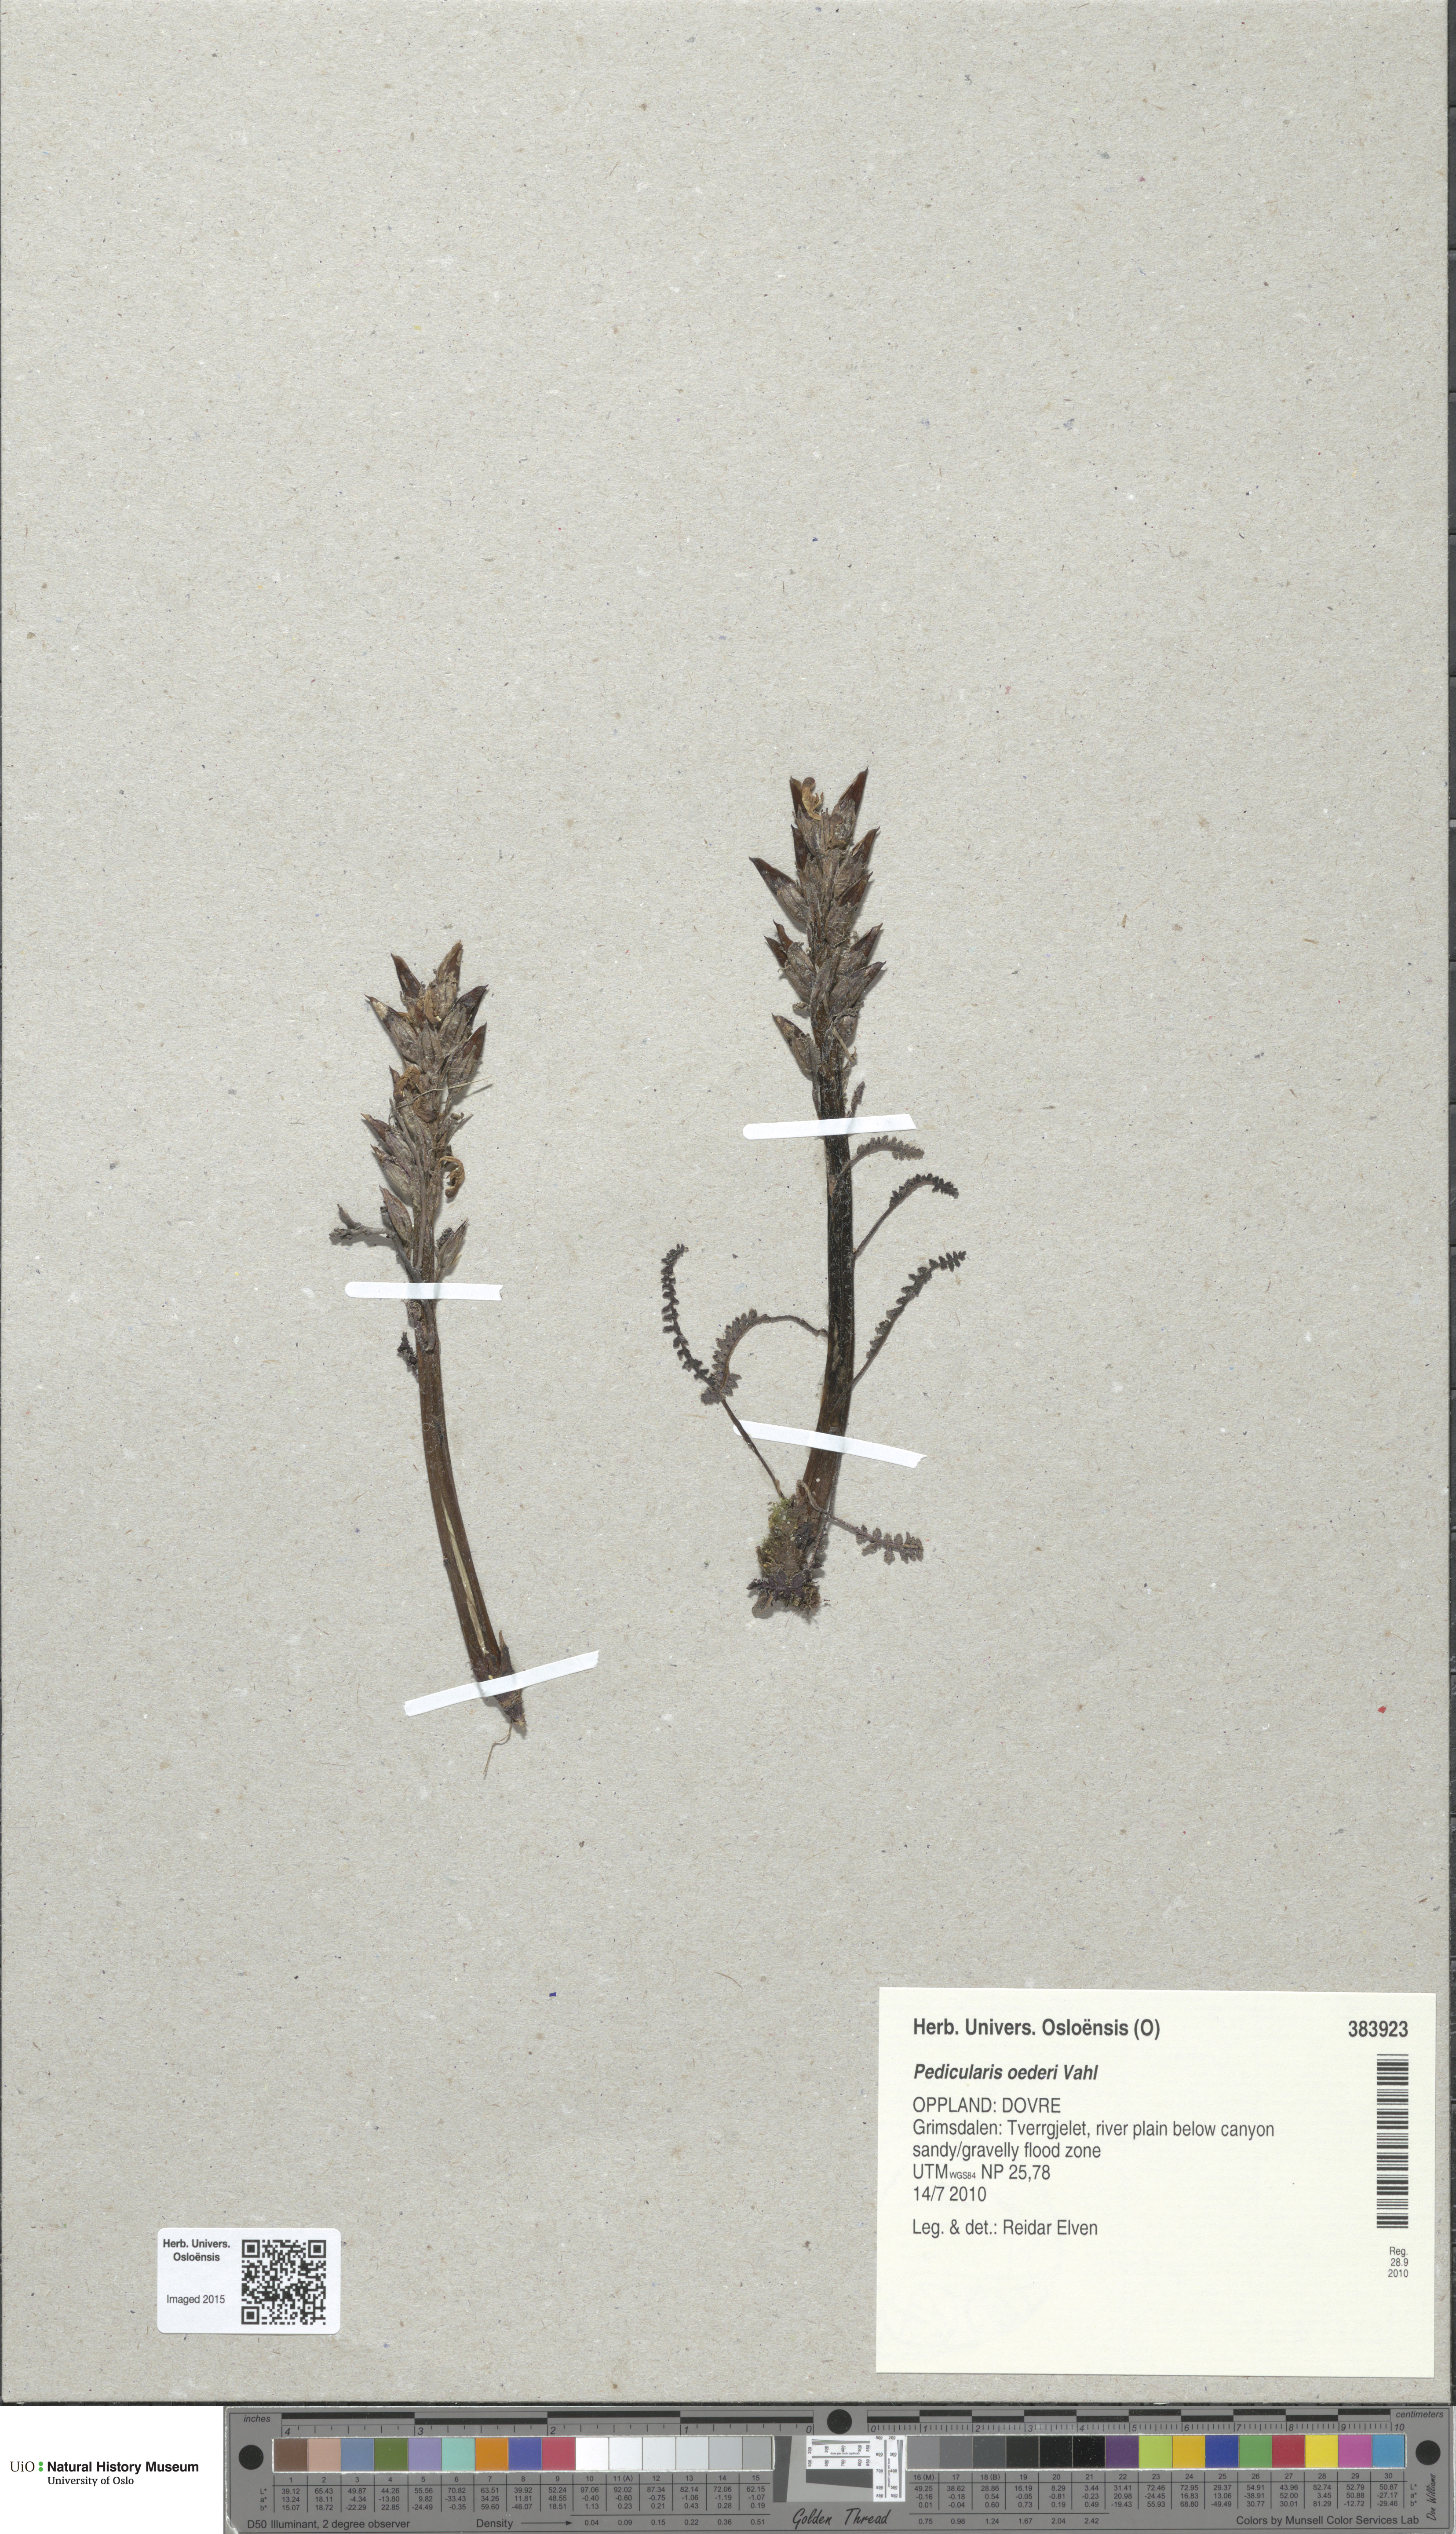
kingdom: Plantae
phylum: Tracheophyta
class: Magnoliopsida
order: Lamiales
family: Orobanchaceae
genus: Pedicularis
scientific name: Pedicularis oederi
